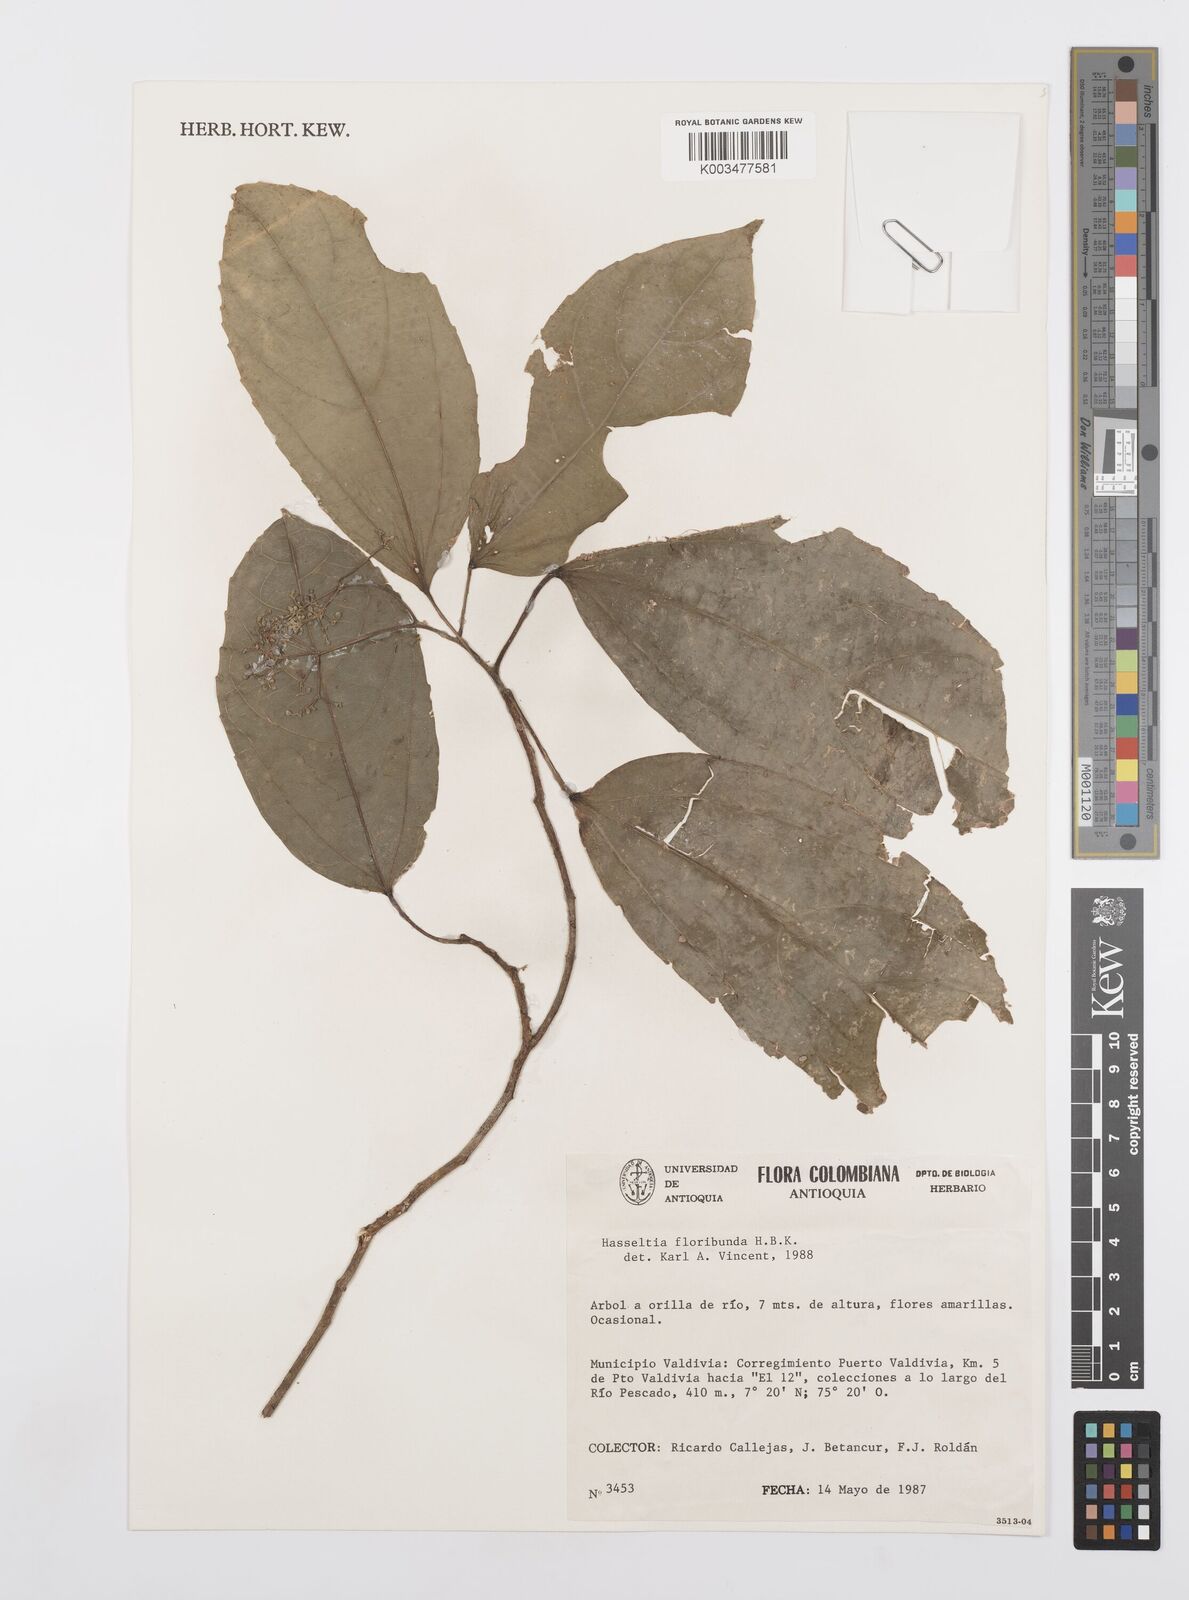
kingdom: Plantae
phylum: Tracheophyta
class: Magnoliopsida
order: Malpighiales
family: Salicaceae
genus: Hasseltia
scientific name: Hasseltia floribunda
